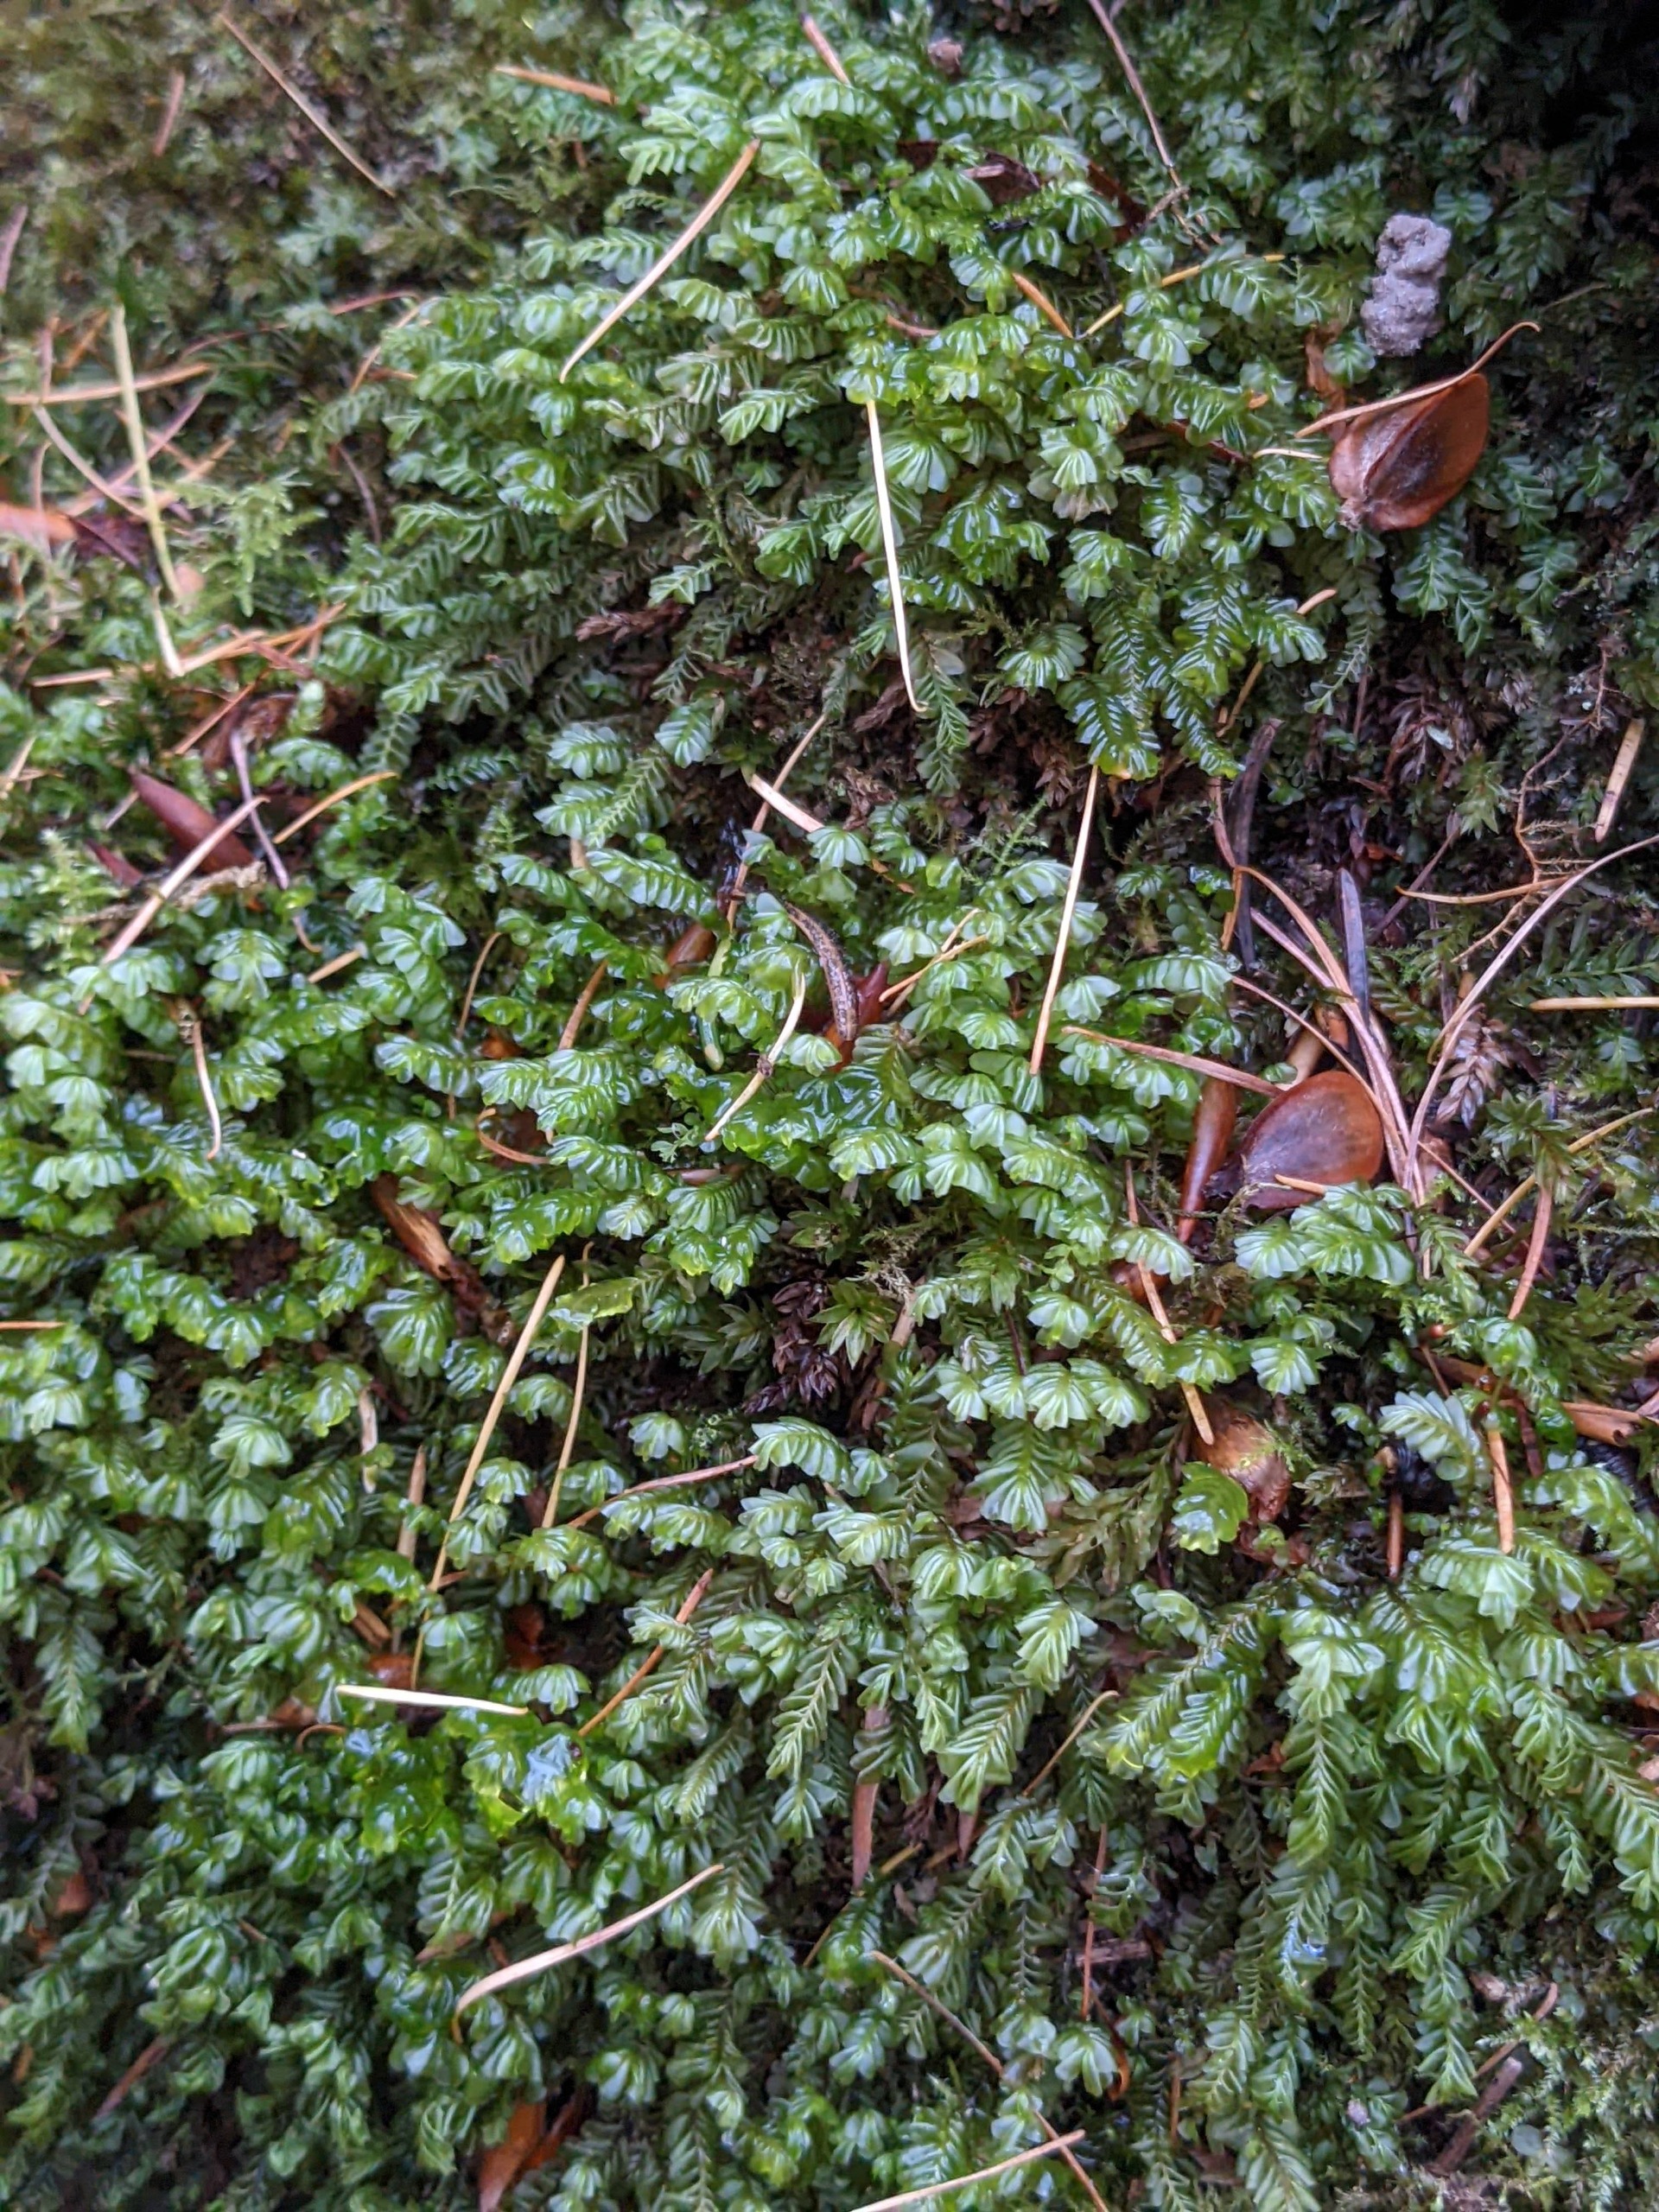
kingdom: Plantae
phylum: Marchantiophyta
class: Jungermanniopsida
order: Jungermanniales
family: Plagiochilaceae
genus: Plagiochila
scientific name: Plagiochila asplenioides
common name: Radeløv-hindeblad
